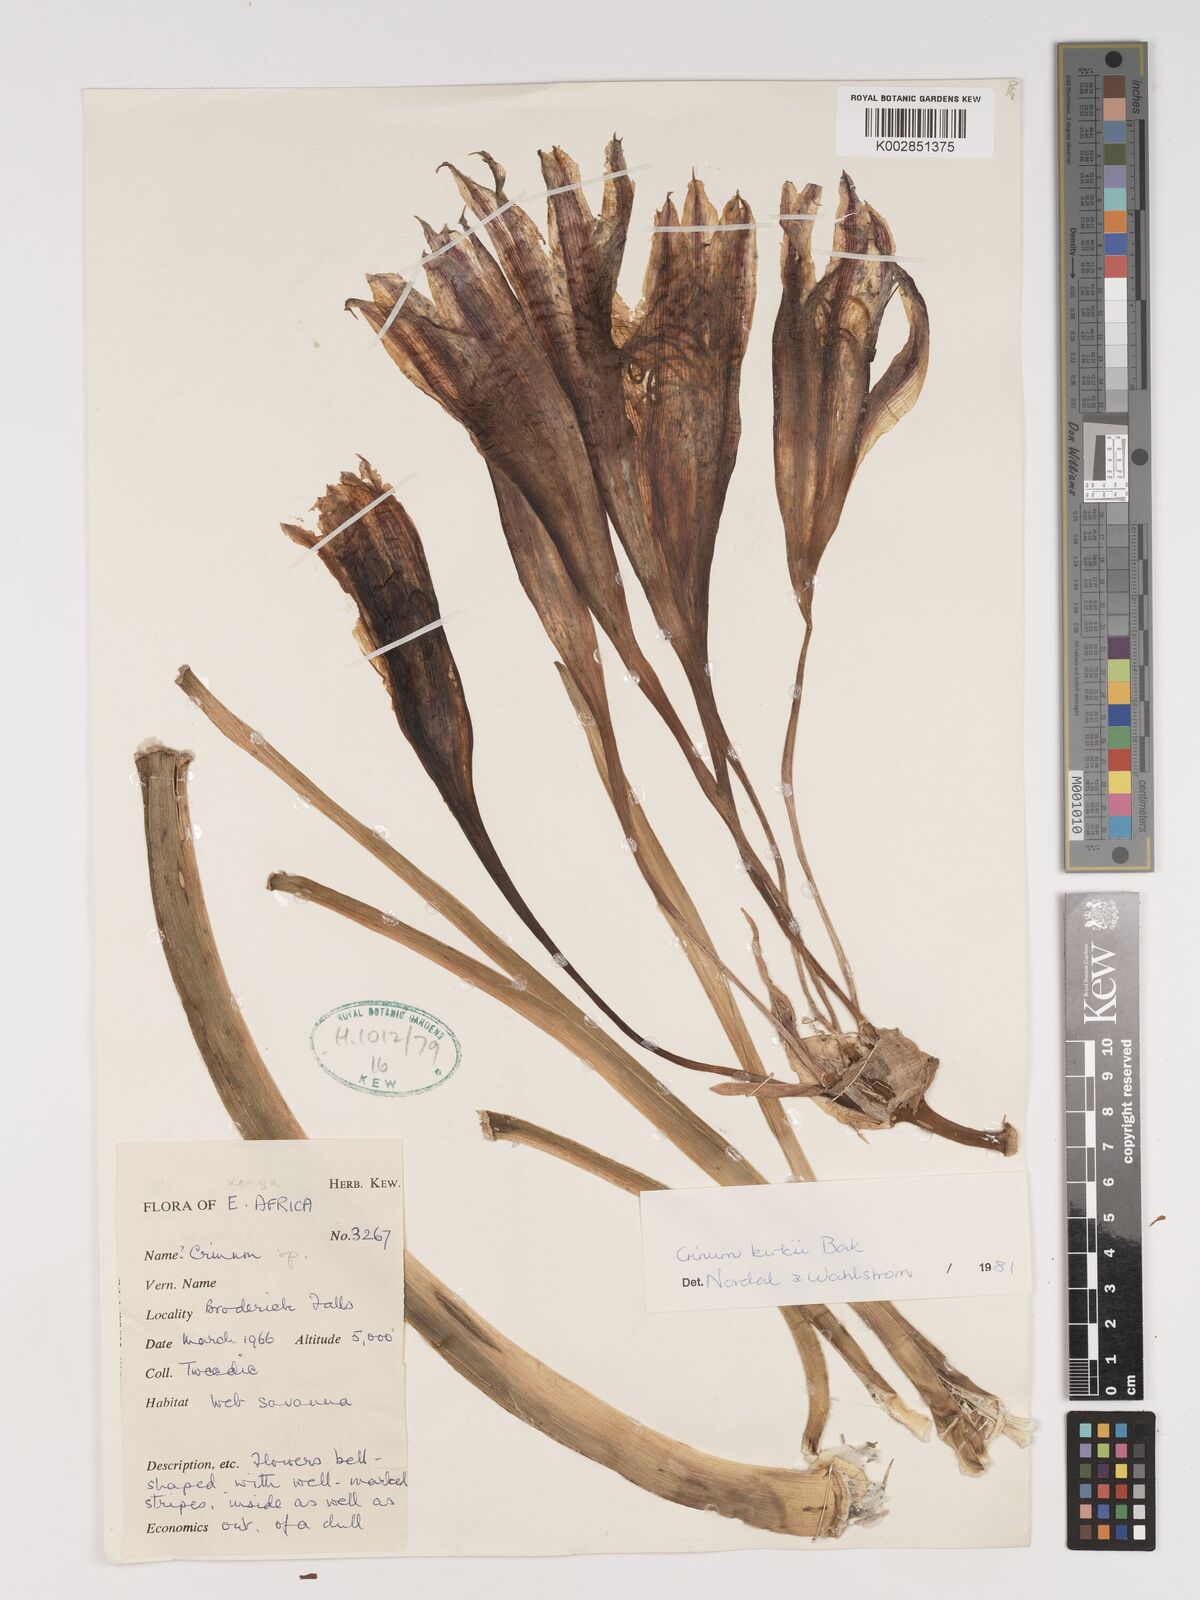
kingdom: Plantae
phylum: Tracheophyta
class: Liliopsida
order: Asparagales
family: Amaryllidaceae
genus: Crinum
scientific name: Crinum kirkii
